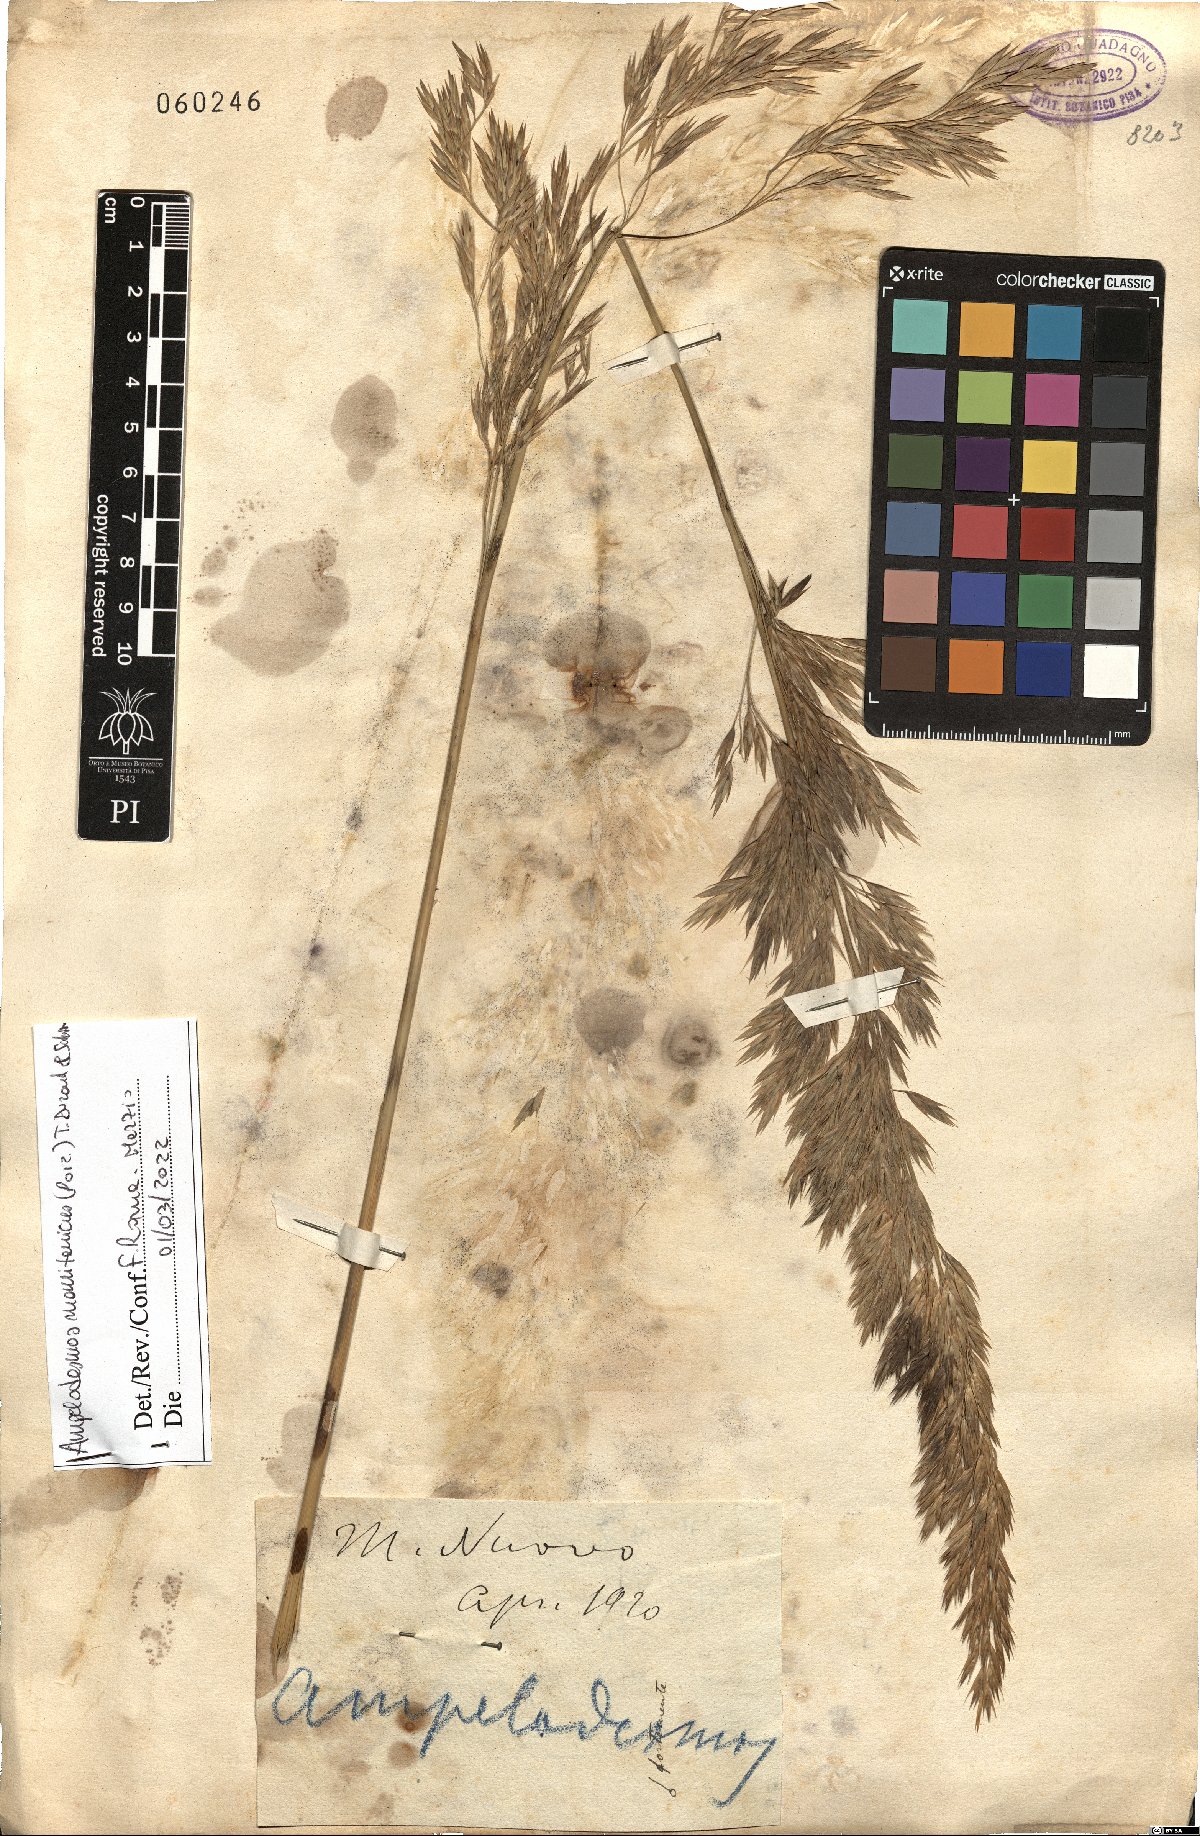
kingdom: Plantae
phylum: Tracheophyta
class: Liliopsida
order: Poales
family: Poaceae
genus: Ampelodesmos
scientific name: Ampelodesmos mauritanicus
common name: Mauritanian grass
